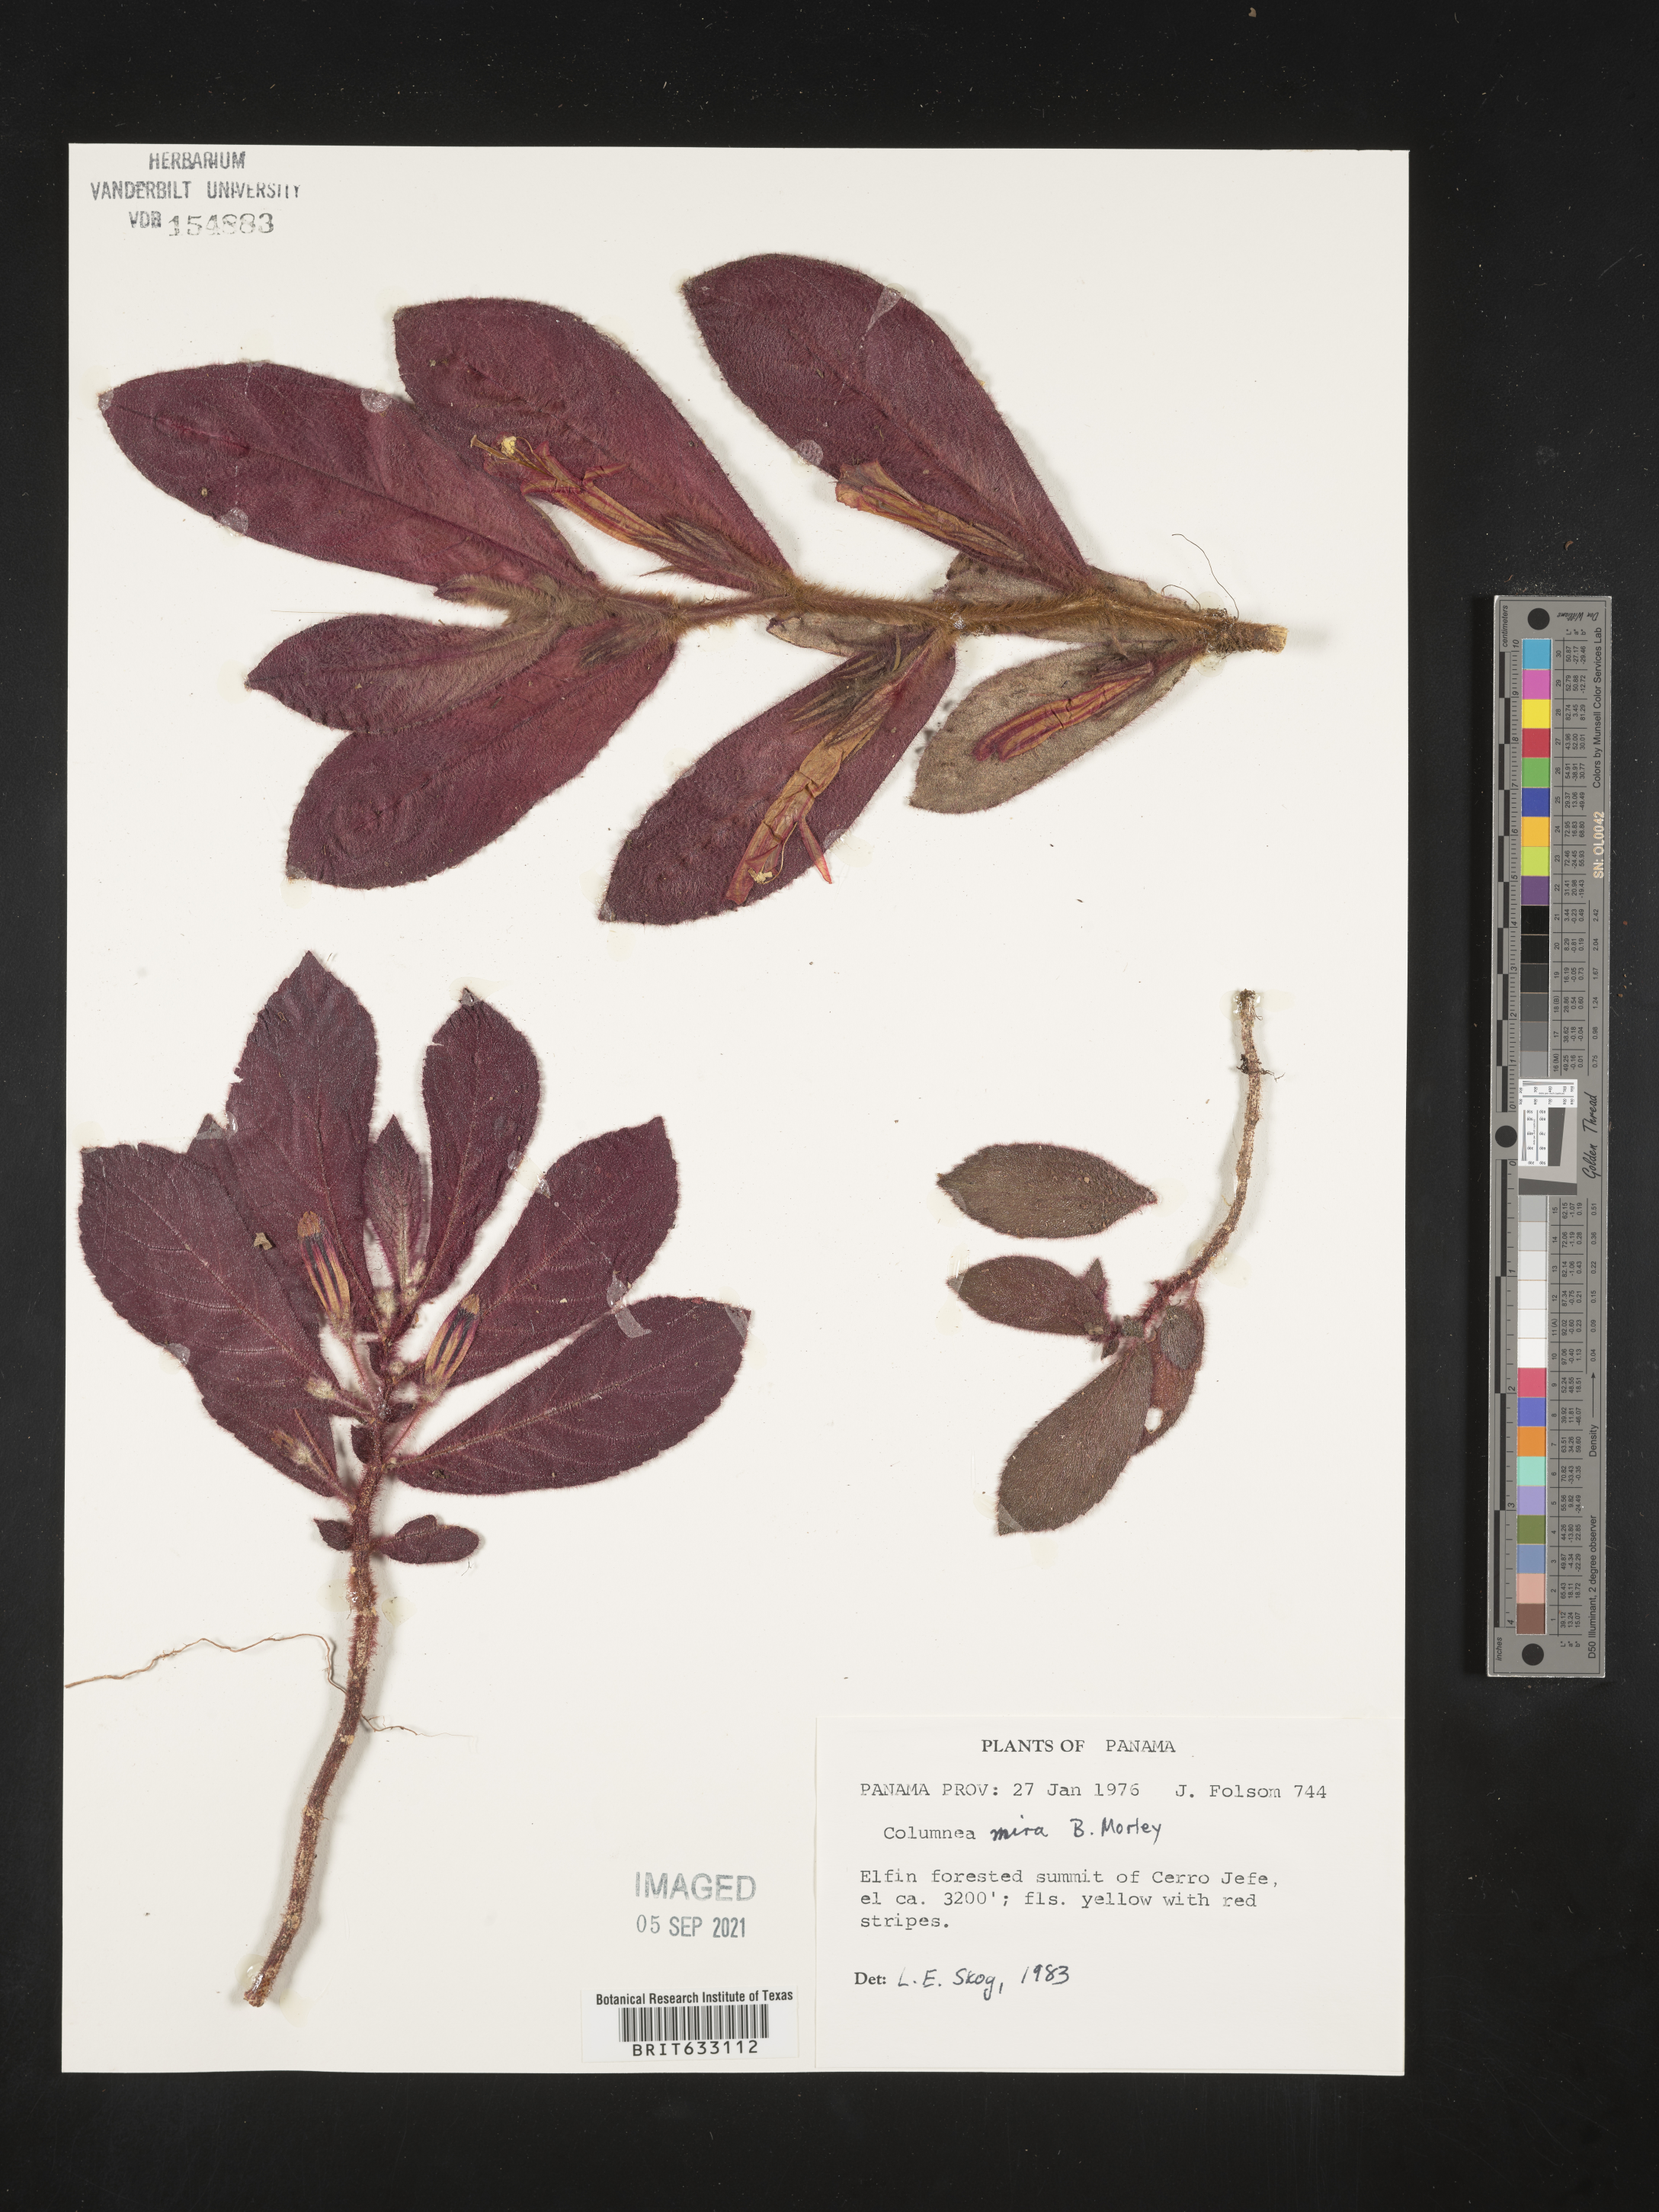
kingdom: Plantae
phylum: Tracheophyta
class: Magnoliopsida
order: Lamiales
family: Gesneriaceae
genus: Columnea
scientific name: Columnea
